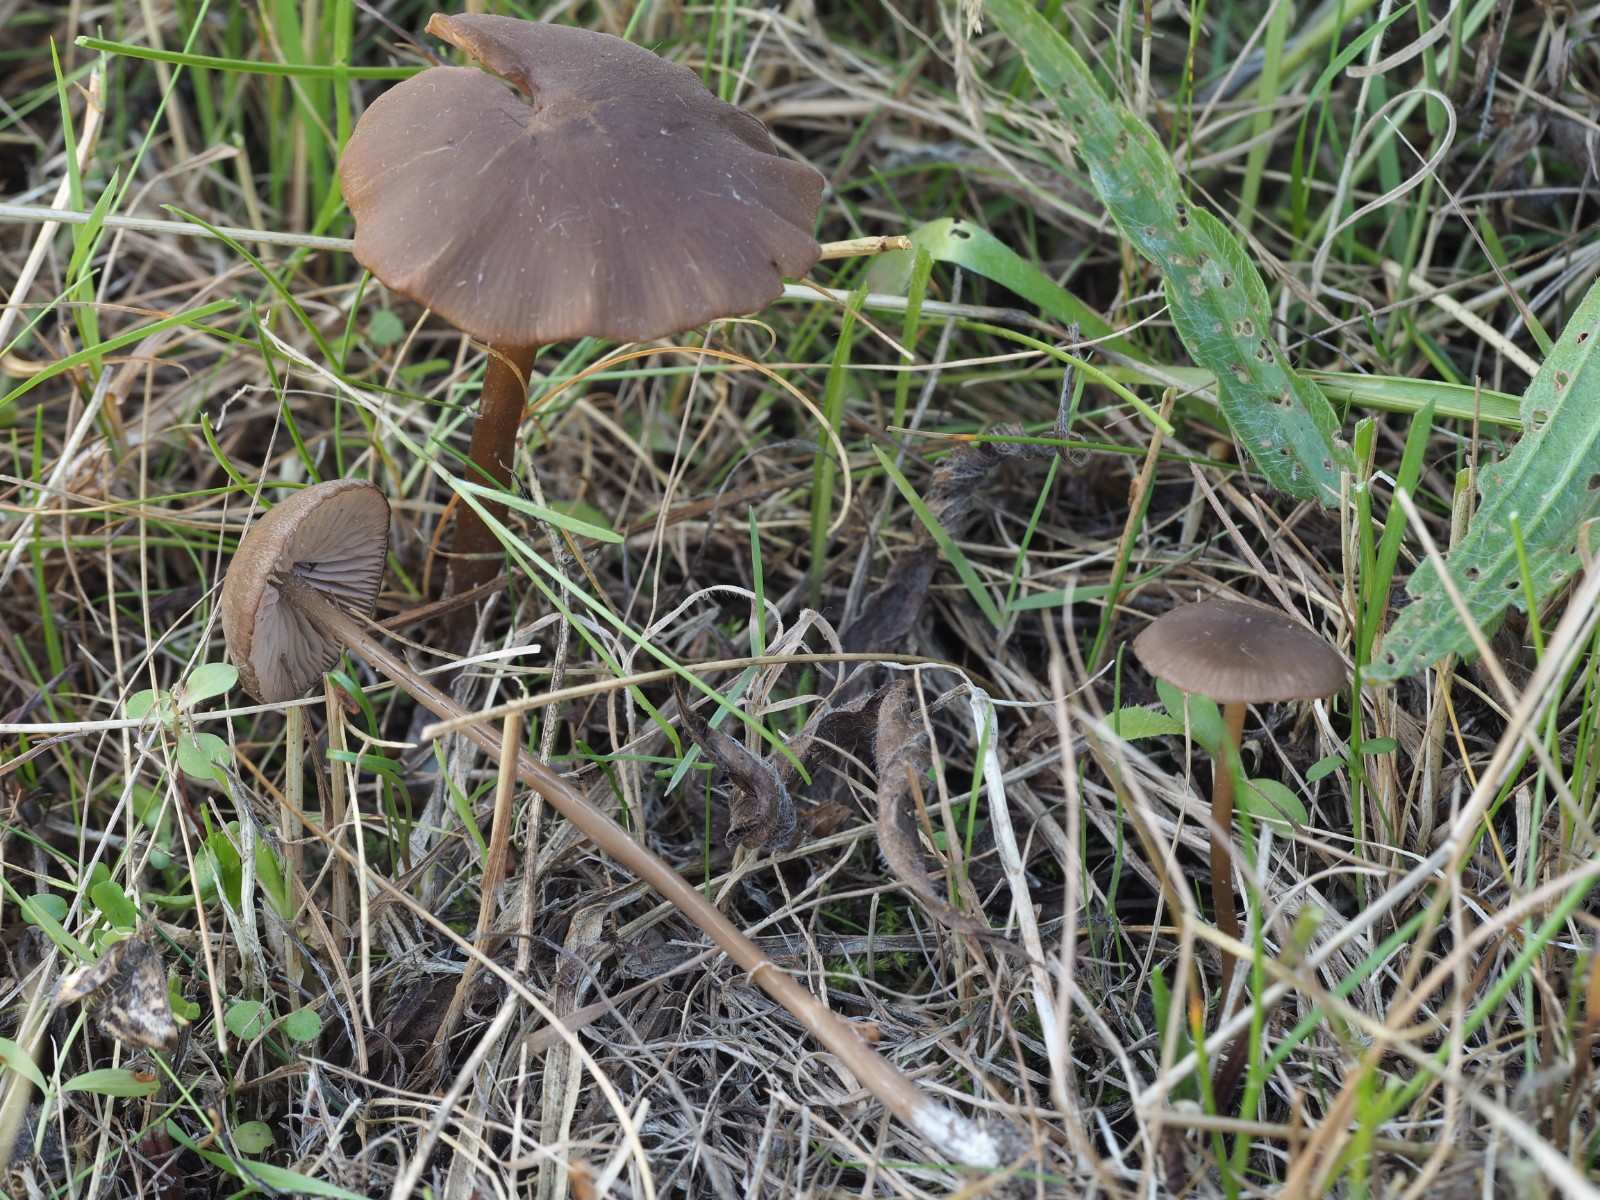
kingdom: Fungi
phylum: Basidiomycota
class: Agaricomycetes
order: Agaricales
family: Entolomataceae
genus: Entoloma
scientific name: Entoloma
